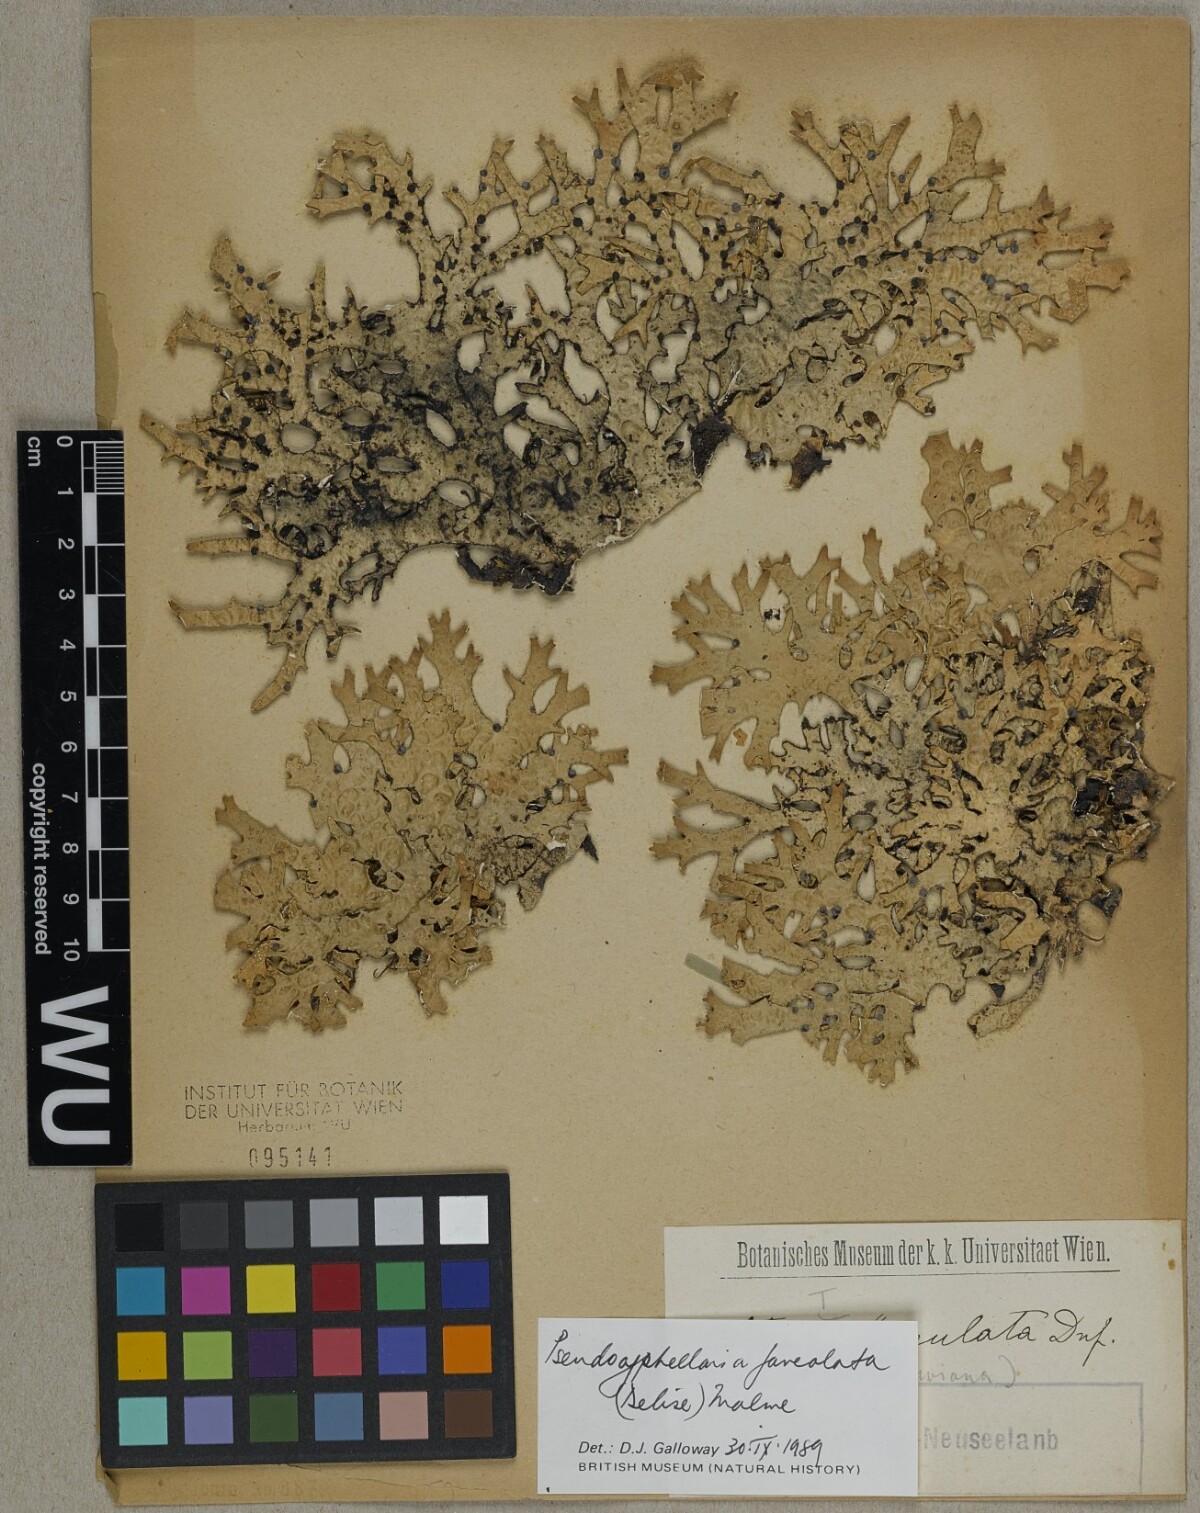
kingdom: Fungi
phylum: Ascomycota
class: Lecanoromycetes
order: Peltigerales
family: Lobariaceae
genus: Pseudocyphellaria
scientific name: Pseudocyphellaria faveolata
